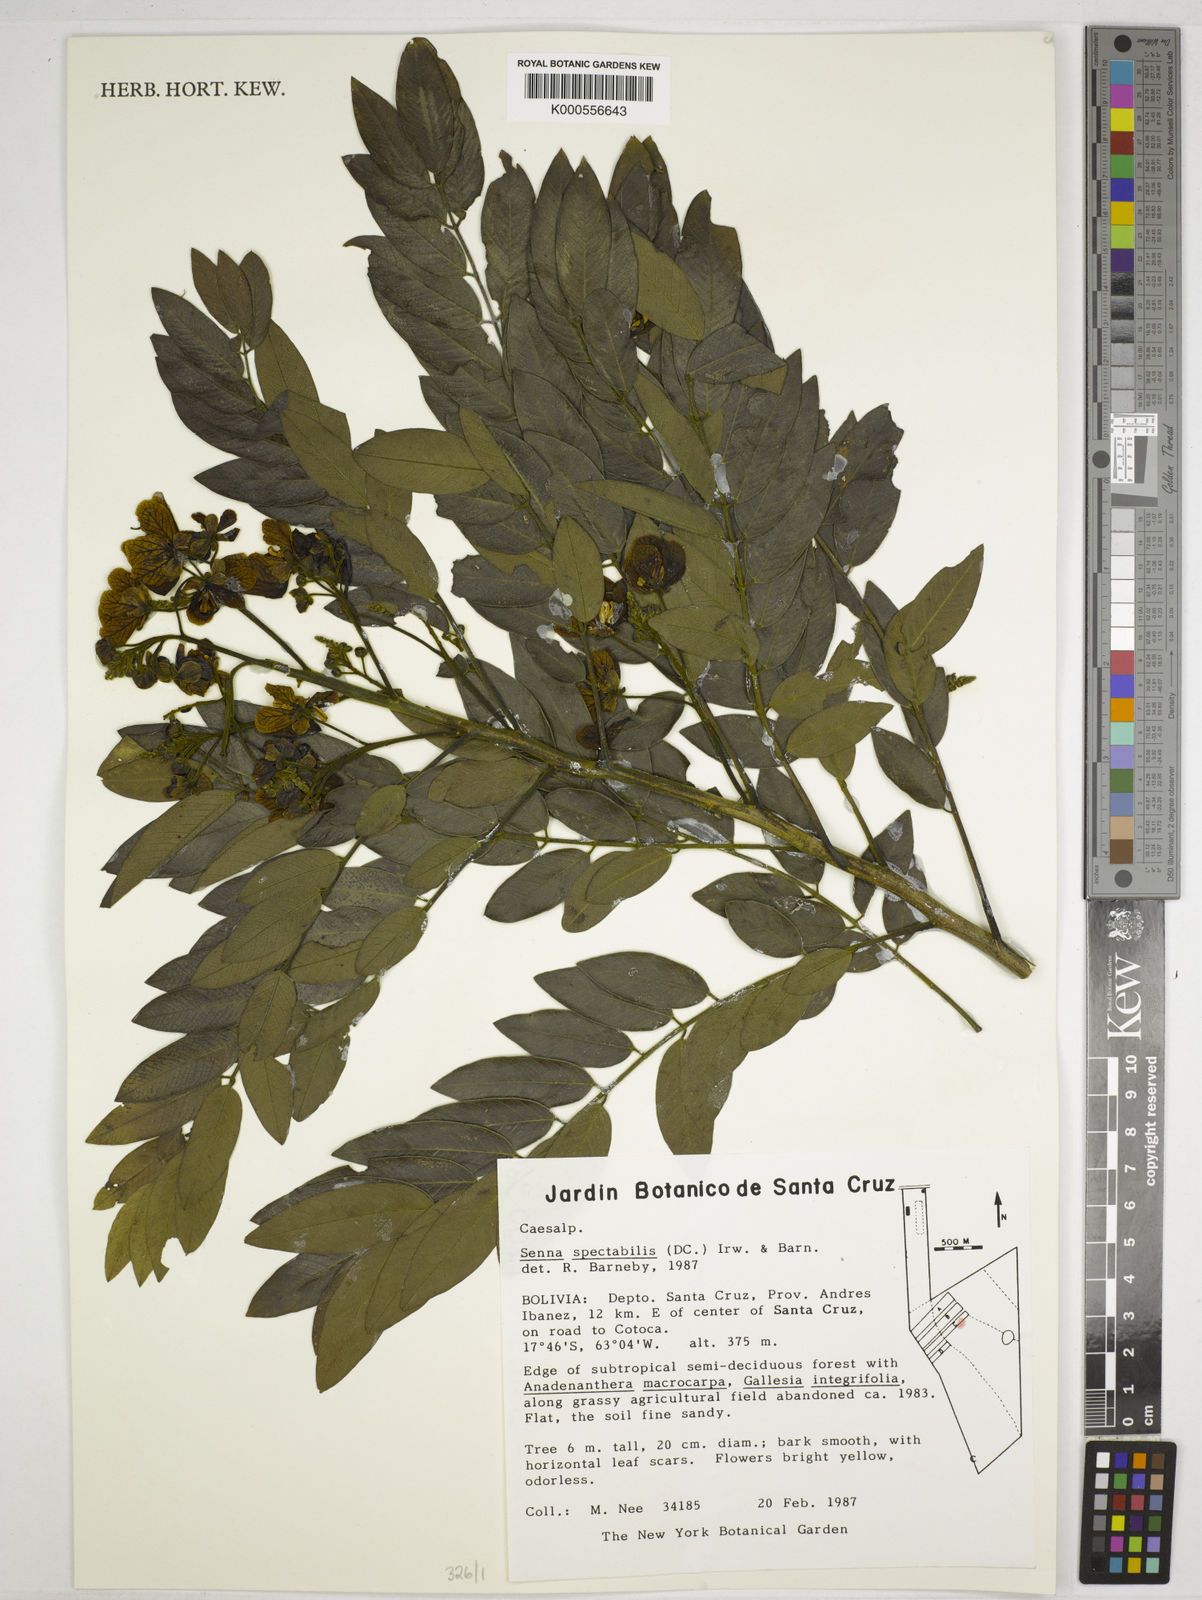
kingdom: Plantae
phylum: Tracheophyta
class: Magnoliopsida
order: Fabales
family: Fabaceae
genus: Senna
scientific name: Senna spectabilis
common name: Casia amarilla
